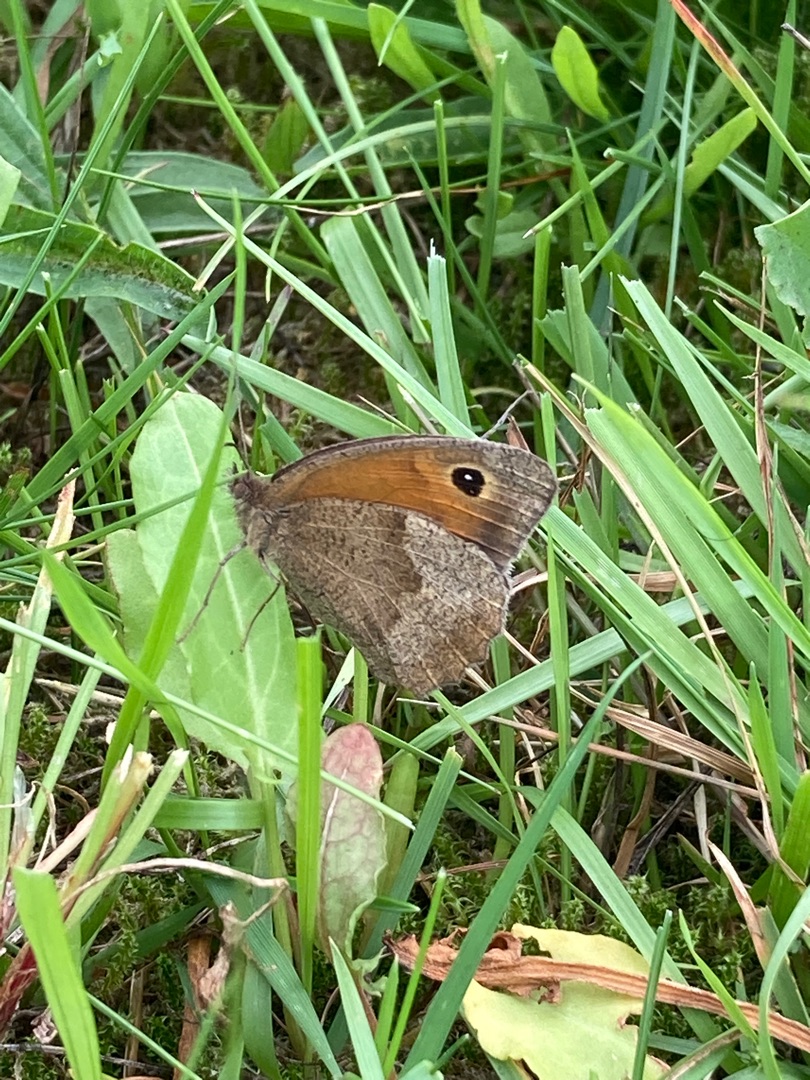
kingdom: Animalia
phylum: Arthropoda
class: Insecta
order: Lepidoptera
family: Nymphalidae
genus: Maniola
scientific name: Maniola jurtina
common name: Græsrandøje
